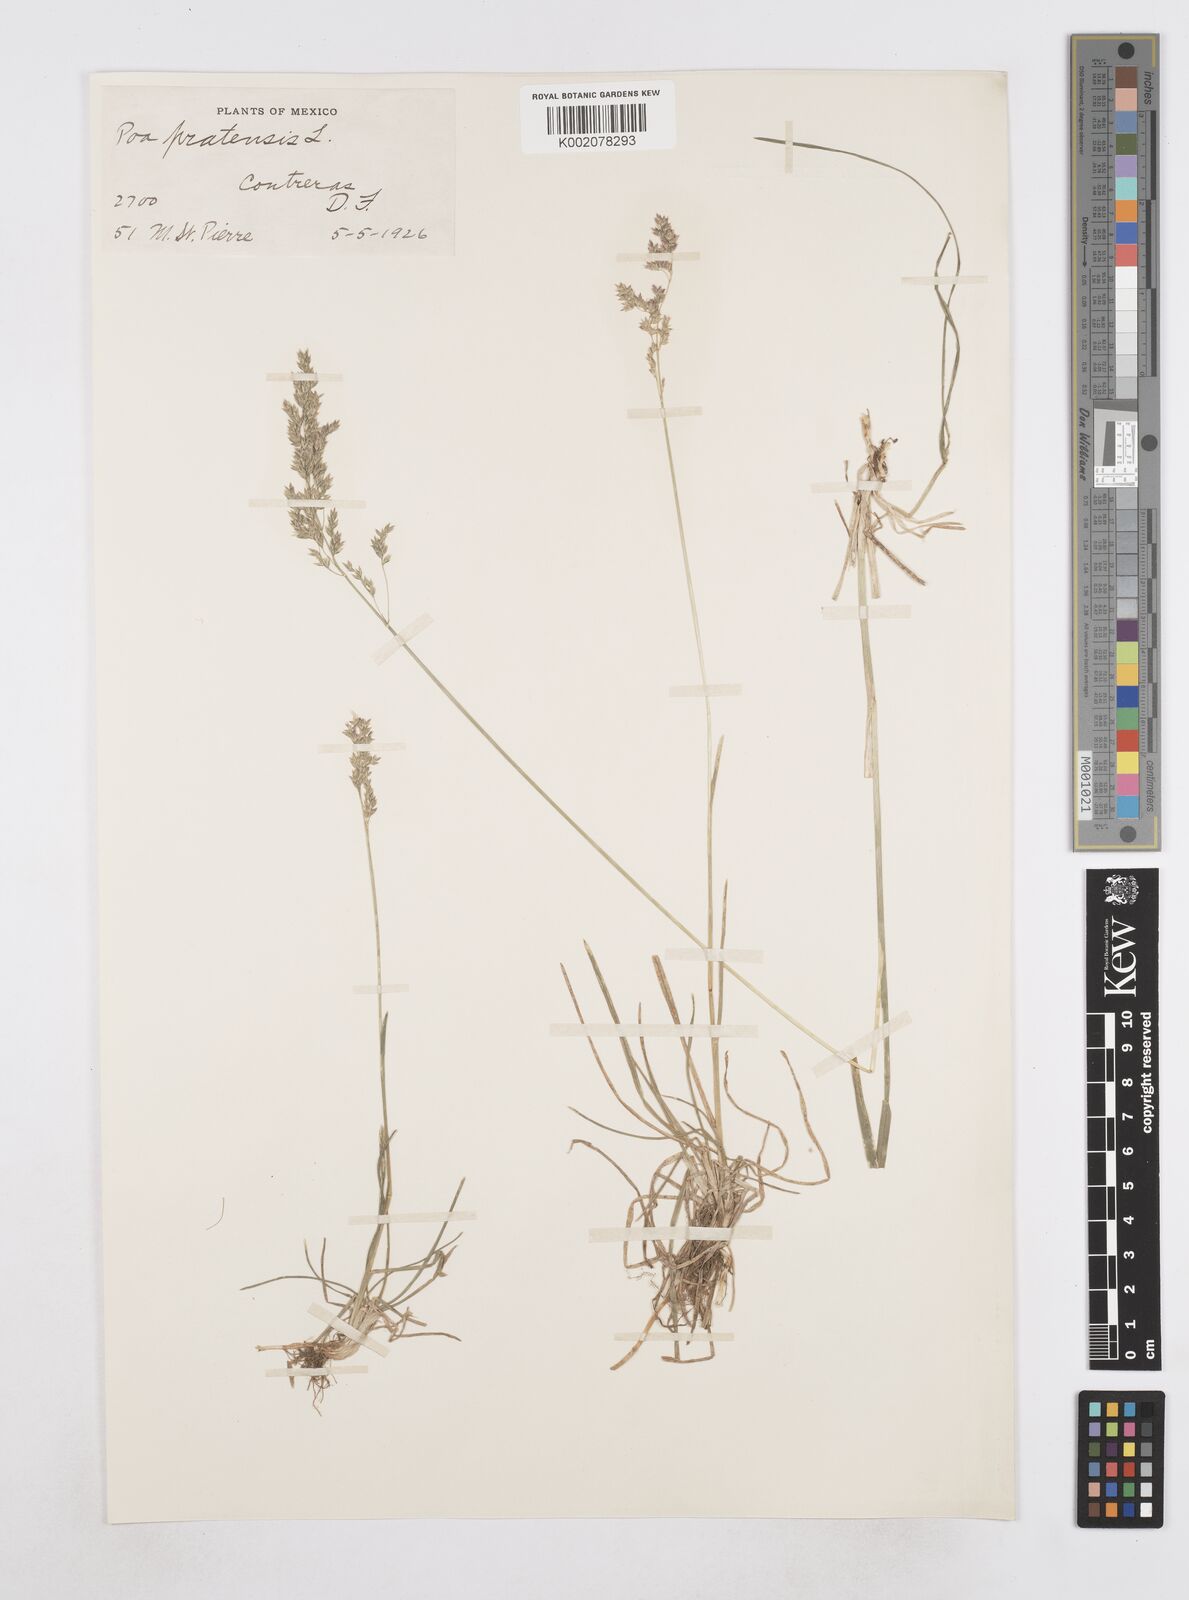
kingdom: Plantae
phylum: Tracheophyta
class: Liliopsida
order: Poales
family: Poaceae
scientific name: Poaceae
